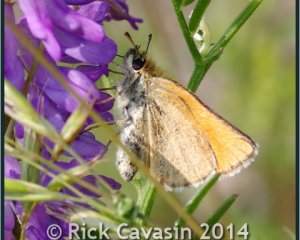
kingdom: Animalia
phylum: Arthropoda
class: Insecta
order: Lepidoptera
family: Hesperiidae
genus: Thymelicus
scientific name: Thymelicus lineola
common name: European Skipper
